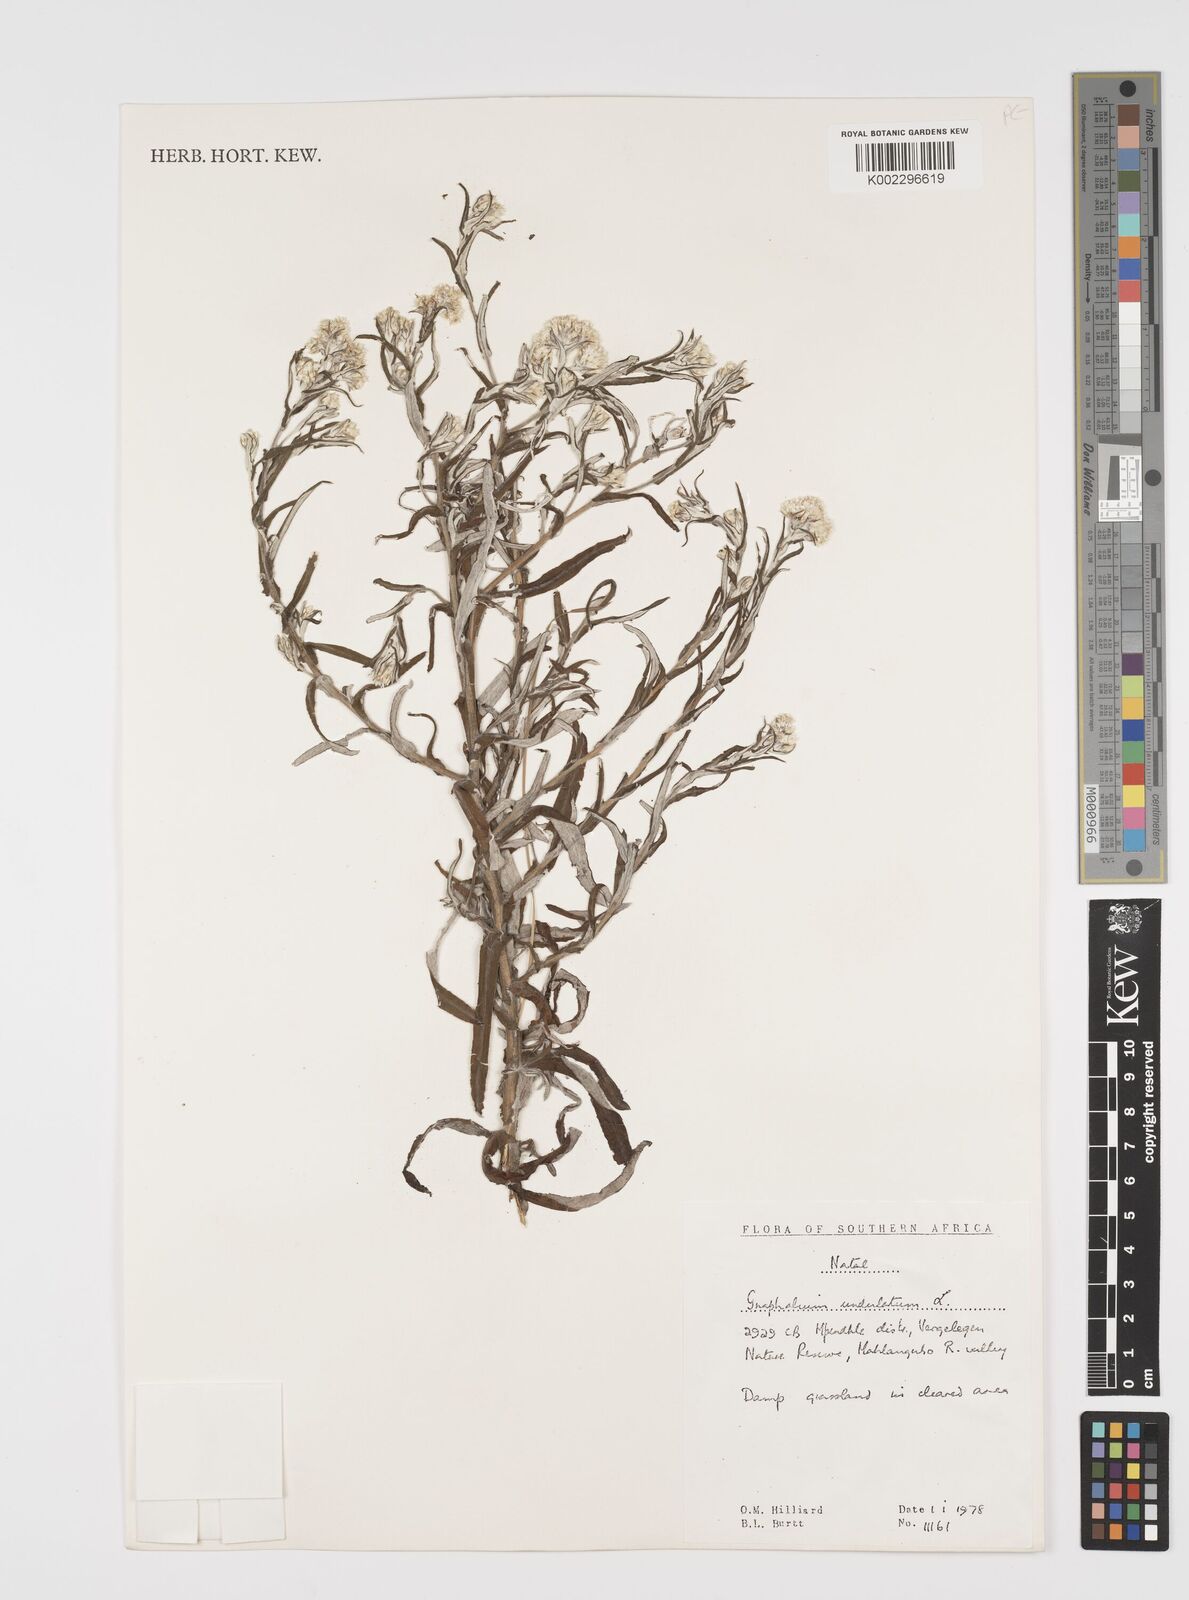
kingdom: Plantae
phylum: Tracheophyta
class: Magnoliopsida
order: Asterales
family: Asteraceae
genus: Pseudognaphalium
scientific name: Pseudognaphalium undulatum
